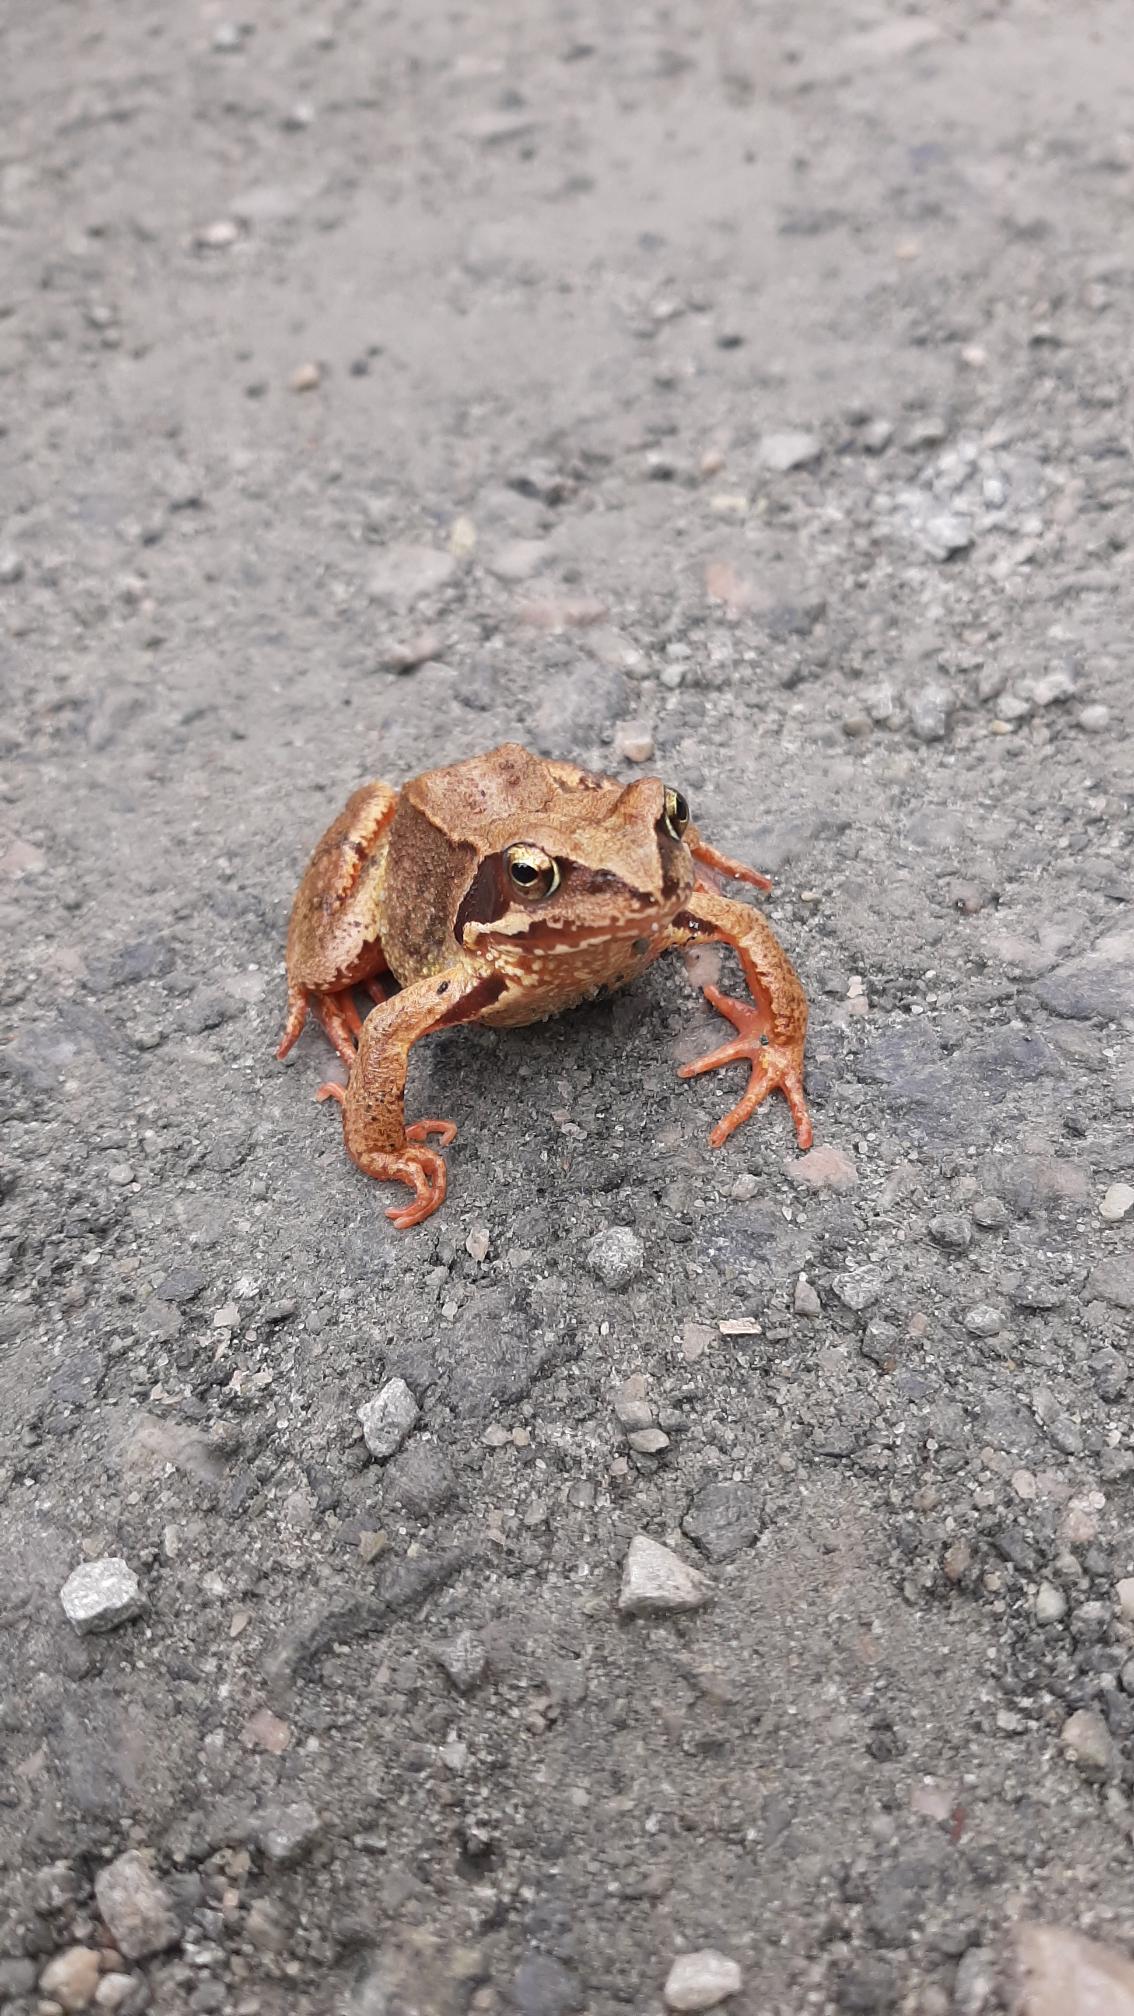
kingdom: Animalia
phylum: Chordata
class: Amphibia
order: Anura
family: Ranidae
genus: Rana
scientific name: Rana
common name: Rana
